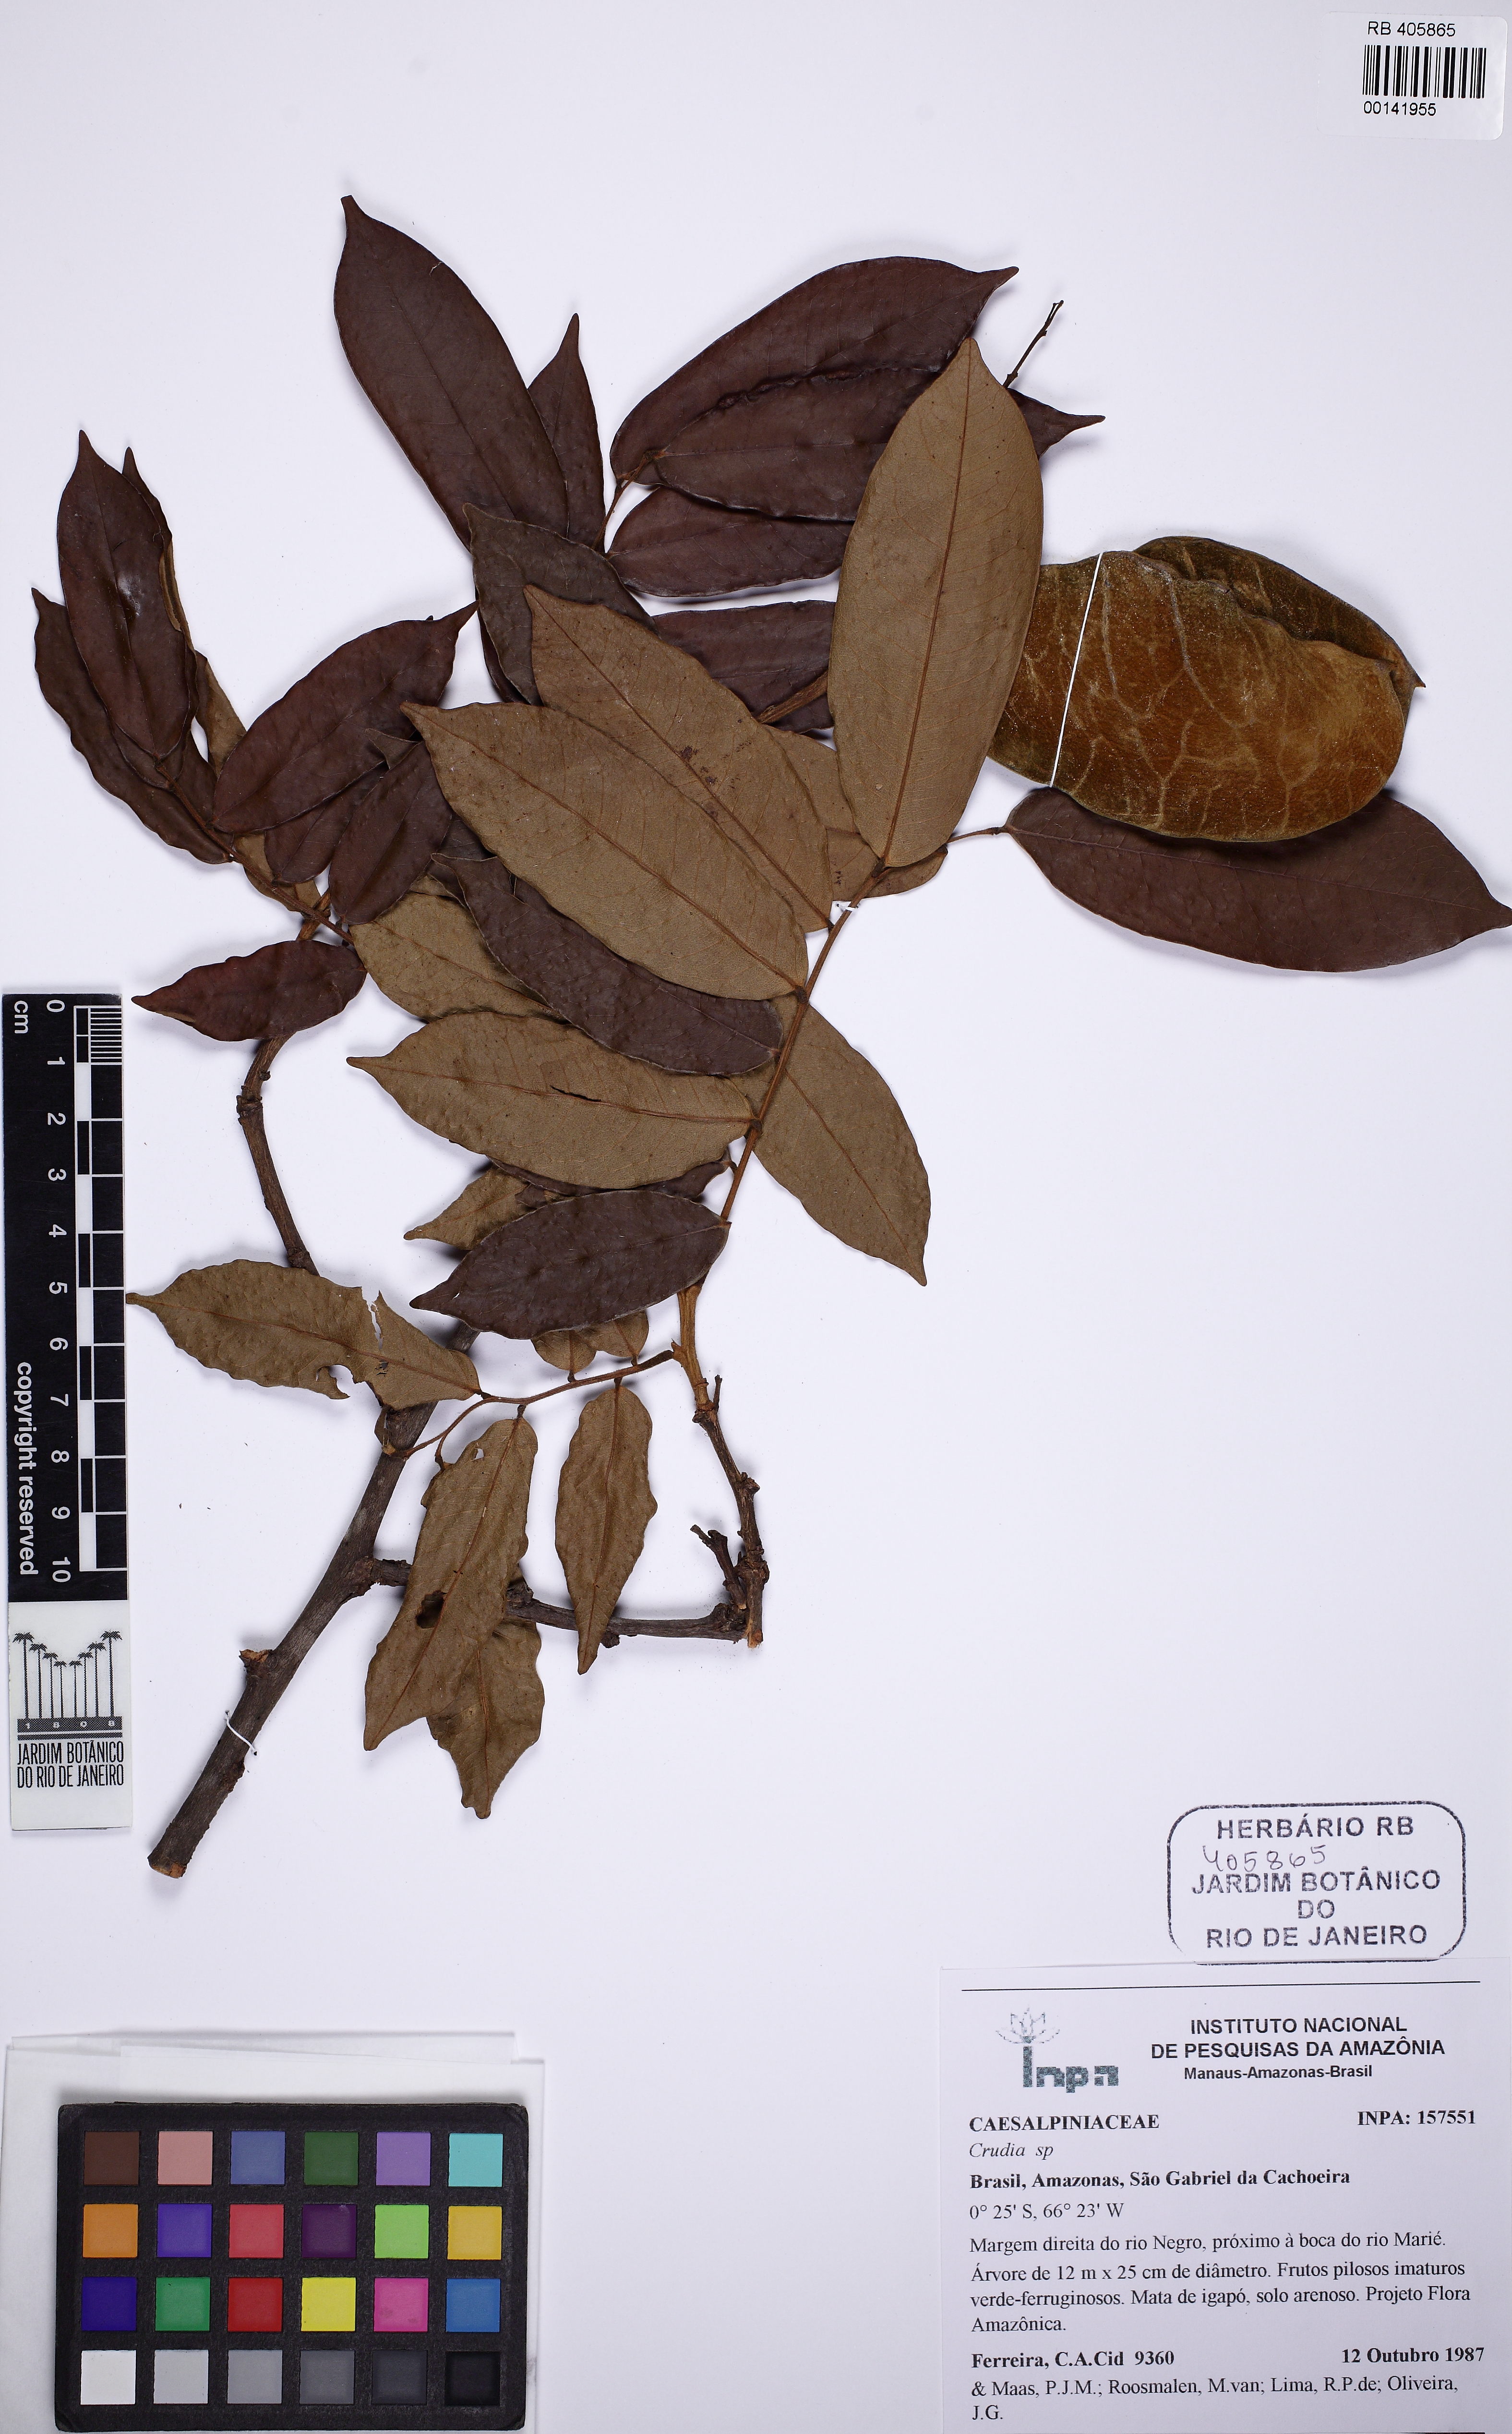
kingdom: Plantae
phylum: Tracheophyta
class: Magnoliopsida
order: Fabales
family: Fabaceae
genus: Crudia
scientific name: Crudia glaberrima
